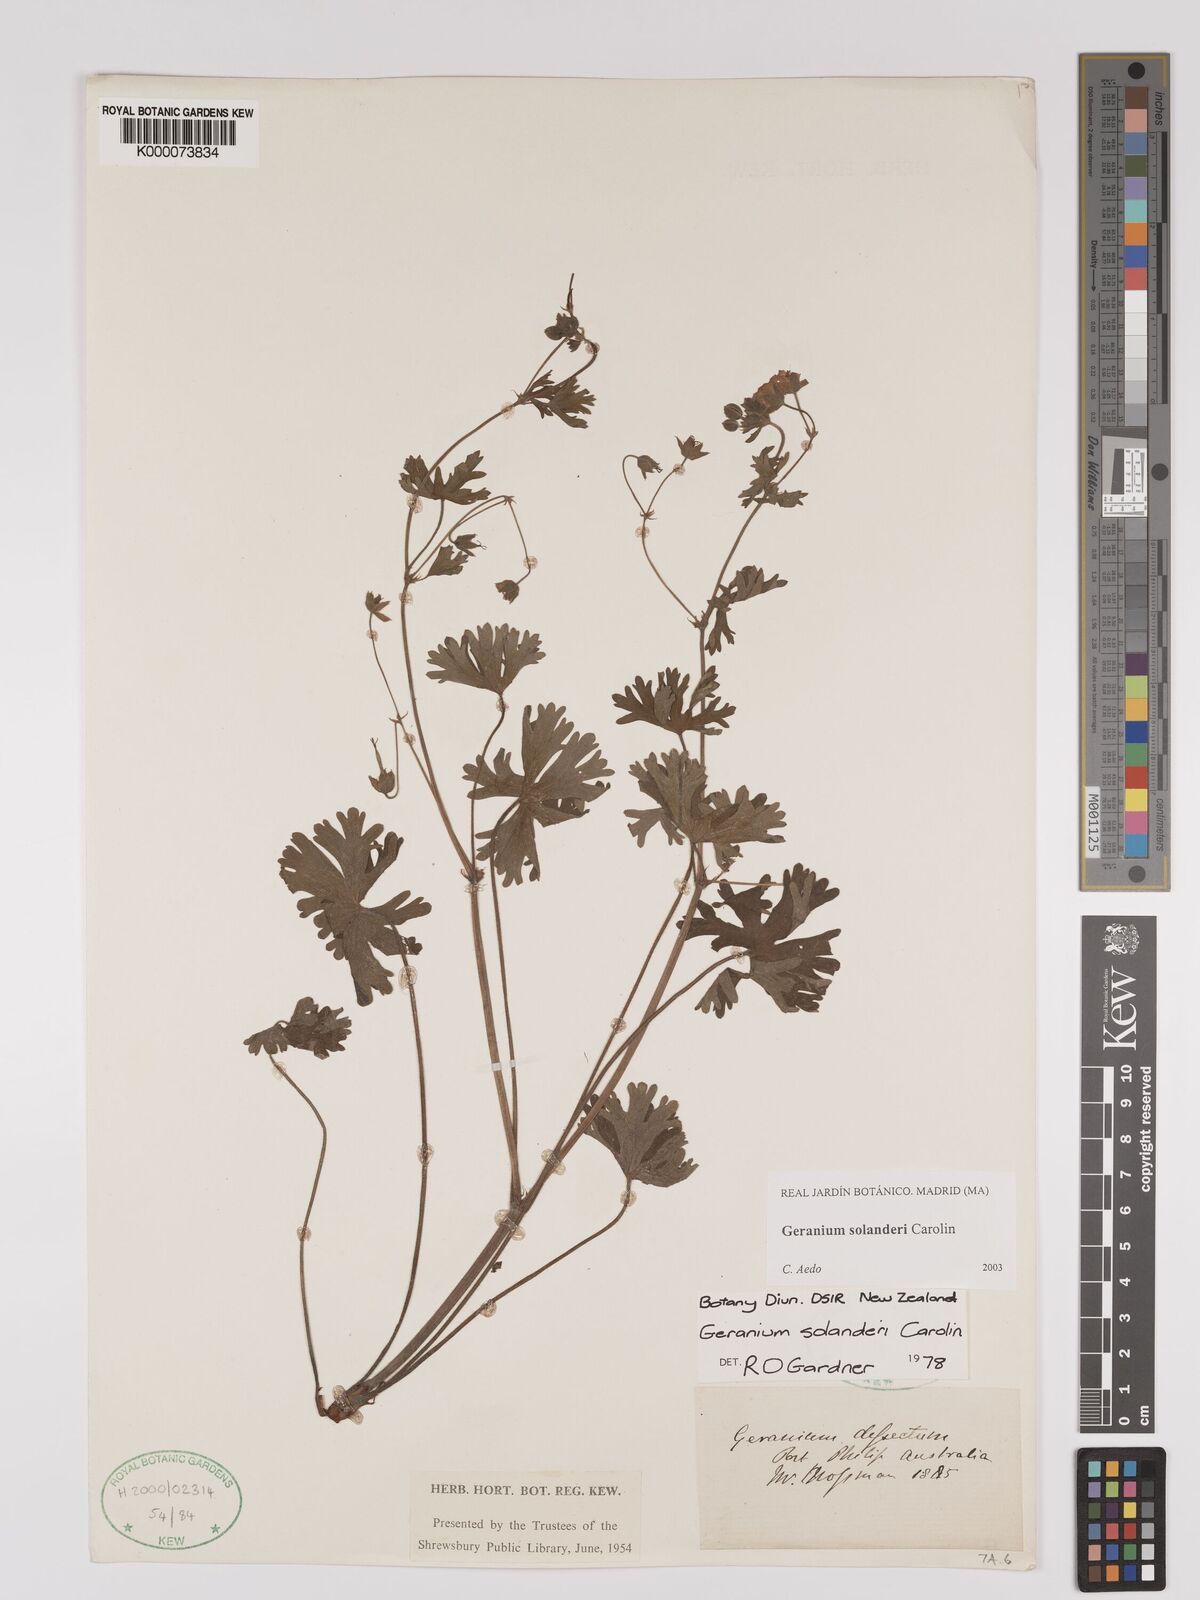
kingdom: Plantae
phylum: Tracheophyta
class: Magnoliopsida
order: Geraniales
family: Geraniaceae
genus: Geranium
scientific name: Geranium solanderi
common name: Solander's geranium
